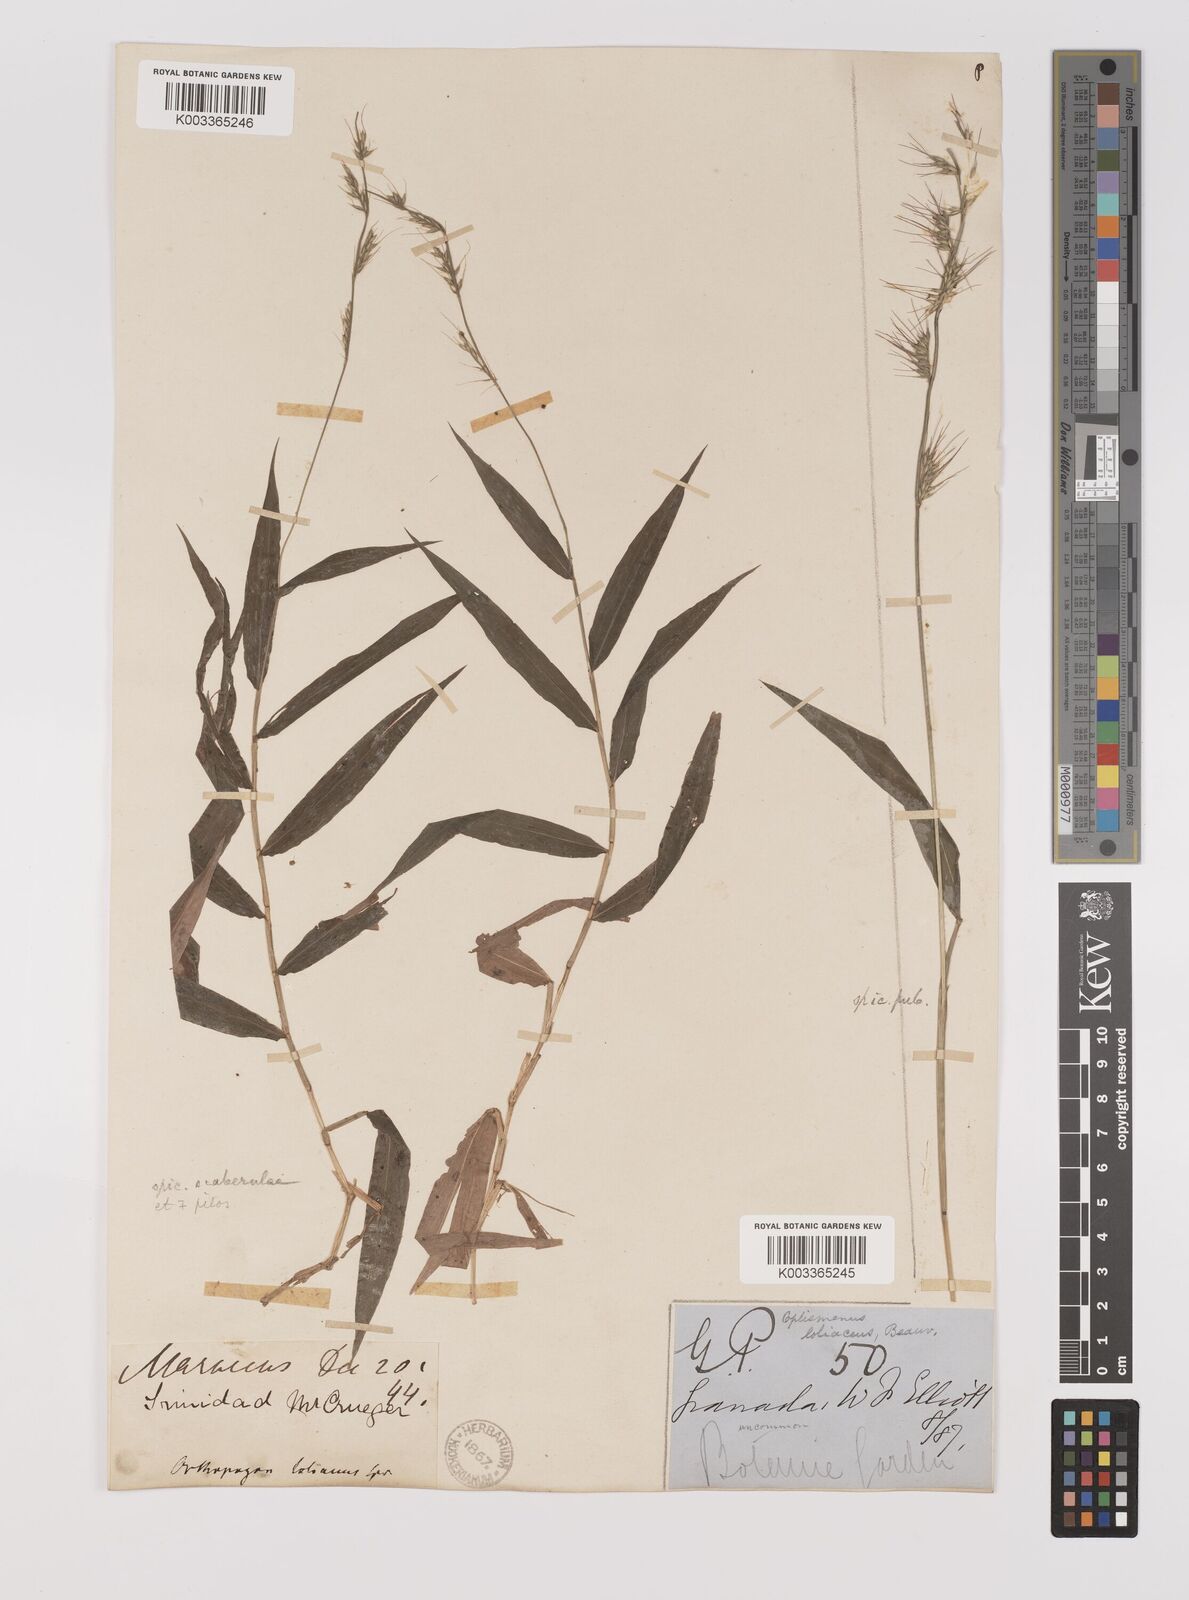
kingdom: Plantae
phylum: Tracheophyta
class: Liliopsida
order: Poales
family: Poaceae
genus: Oplismenus
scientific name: Oplismenus hirtellus
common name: Basketgrass
